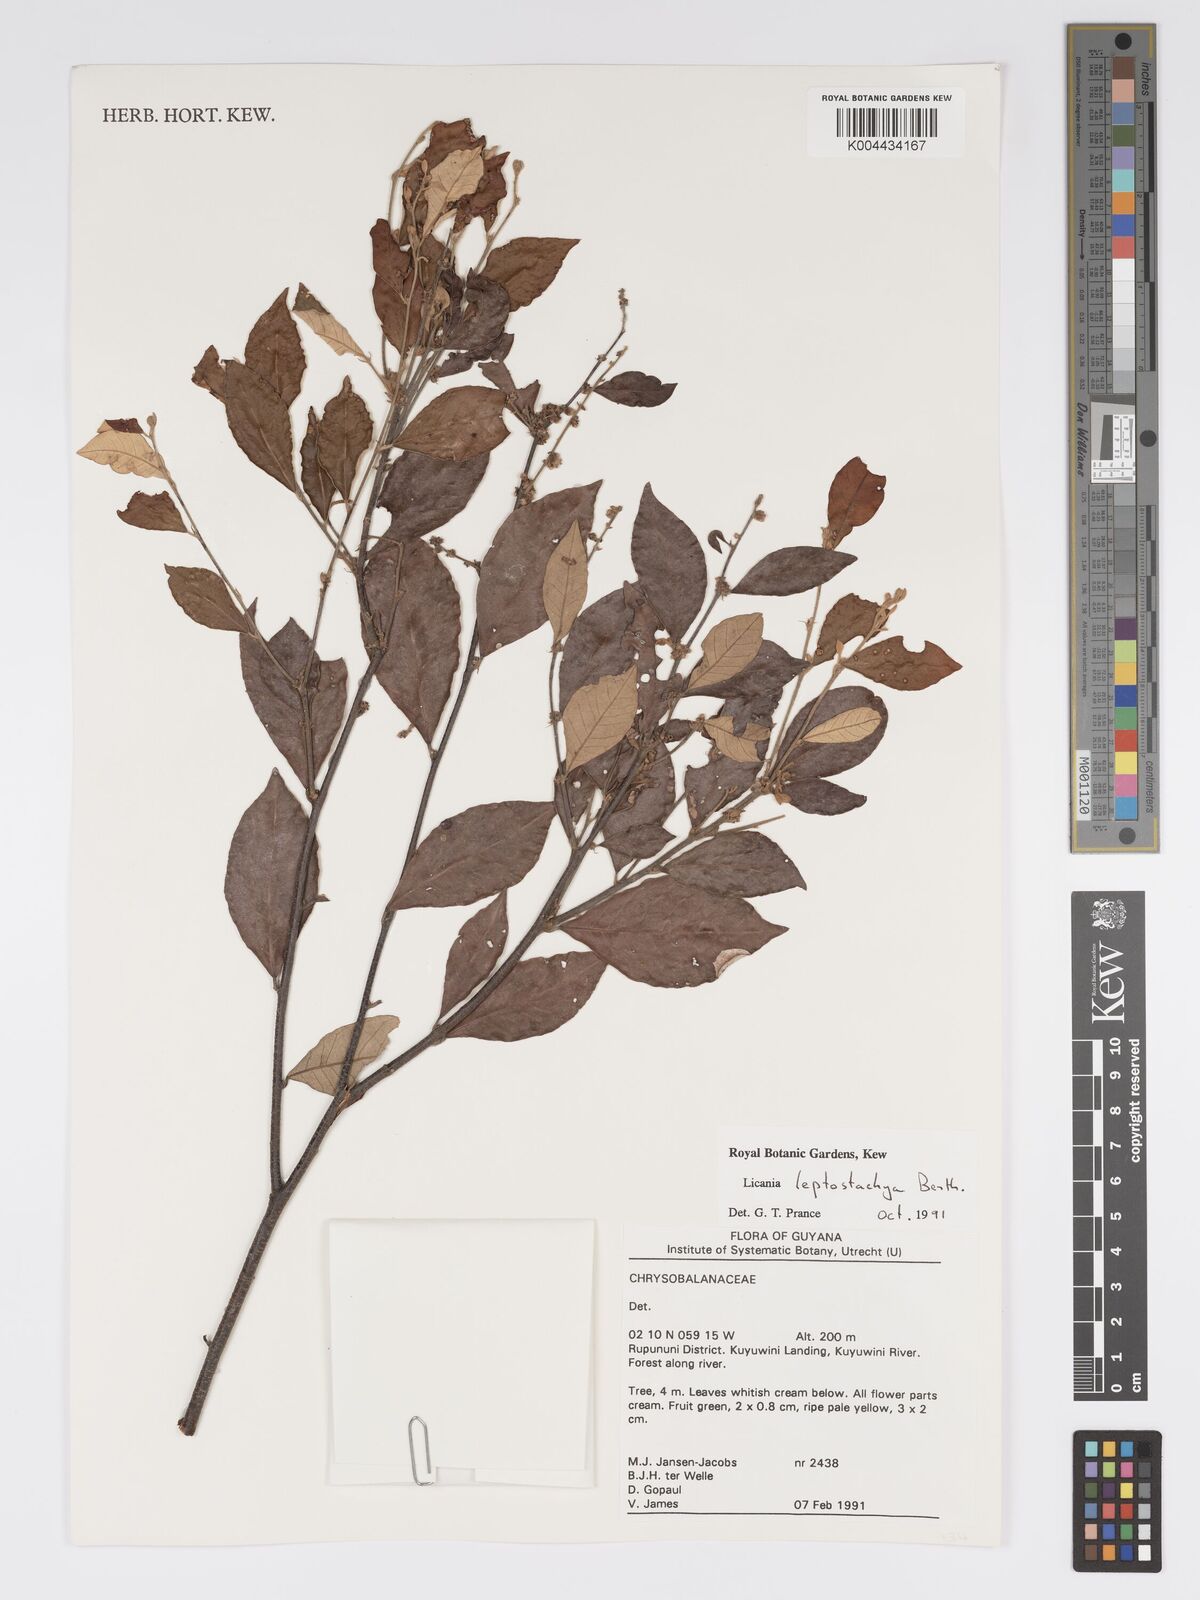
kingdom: Plantae
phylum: Tracheophyta
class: Magnoliopsida
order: Malpighiales
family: Chrysobalanaceae
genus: Licania
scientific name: Licania leptostachya
